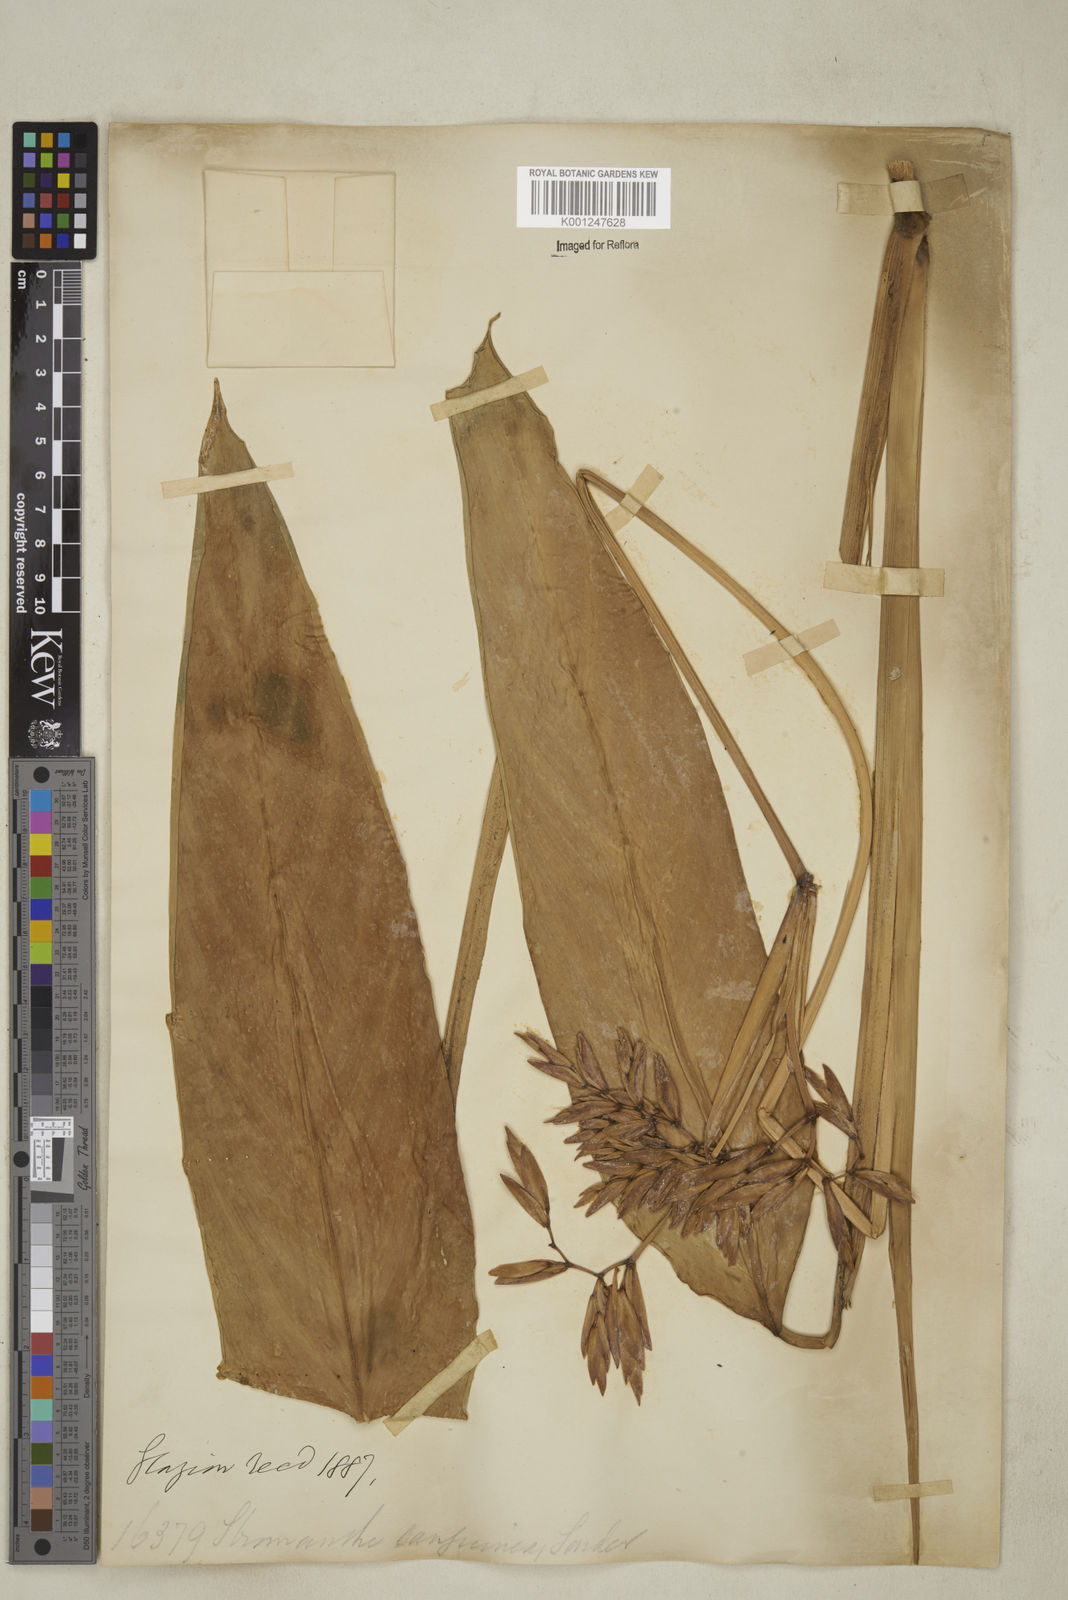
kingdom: Plantae
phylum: Tracheophyta
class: Liliopsida
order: Zingiberales
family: Marantaceae
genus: Stromanthe
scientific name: Stromanthe thalia
